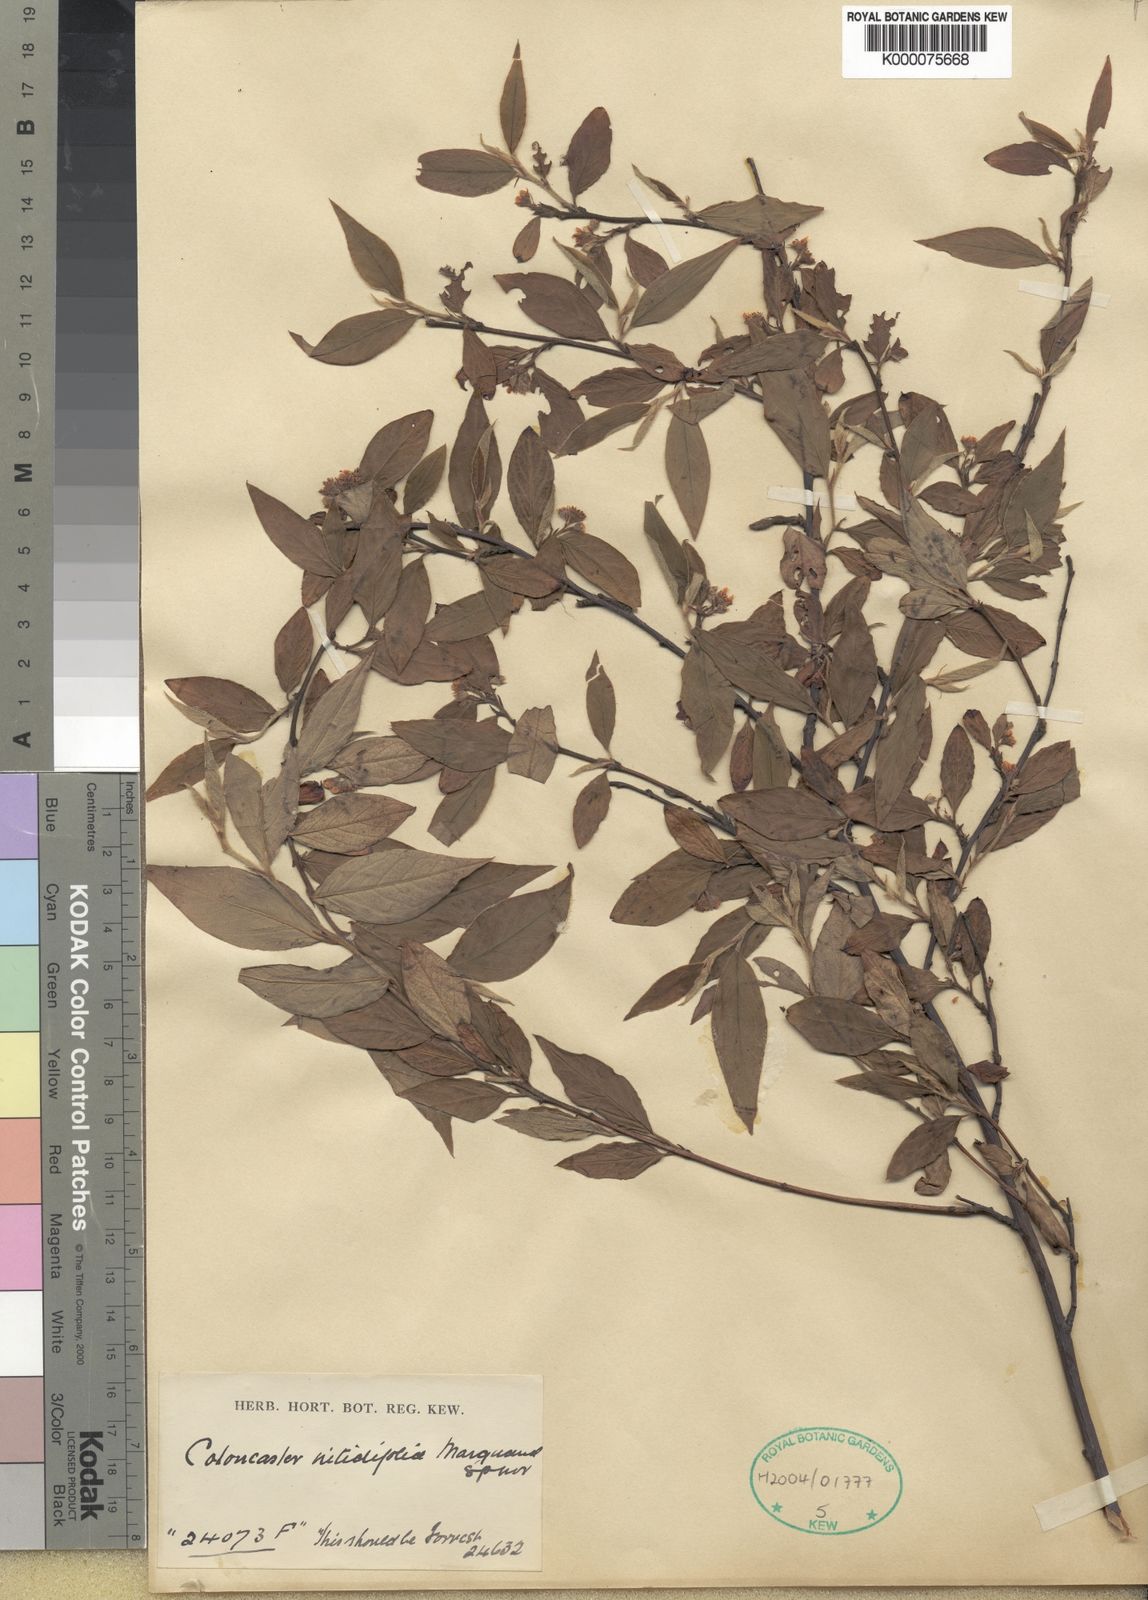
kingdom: Plantae
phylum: Tracheophyta
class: Magnoliopsida
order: Rosales
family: Rosaceae
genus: Cotoneaster
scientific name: Cotoneaster bullatus
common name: Hollyberry cotoneaster
